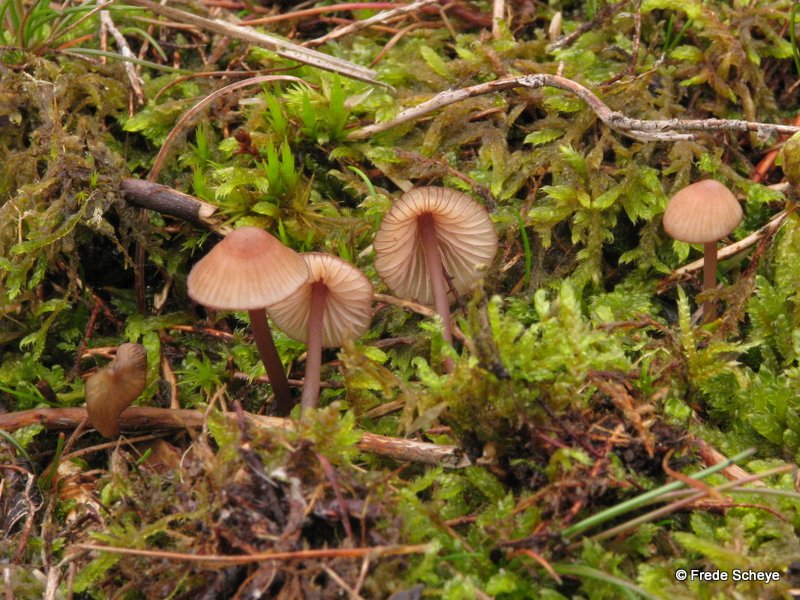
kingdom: Fungi
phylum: Basidiomycota
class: Agaricomycetes
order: Agaricales
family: Mycenaceae
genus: Mycena
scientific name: Mycena sanguinolenta
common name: rødmælket huesvamp
